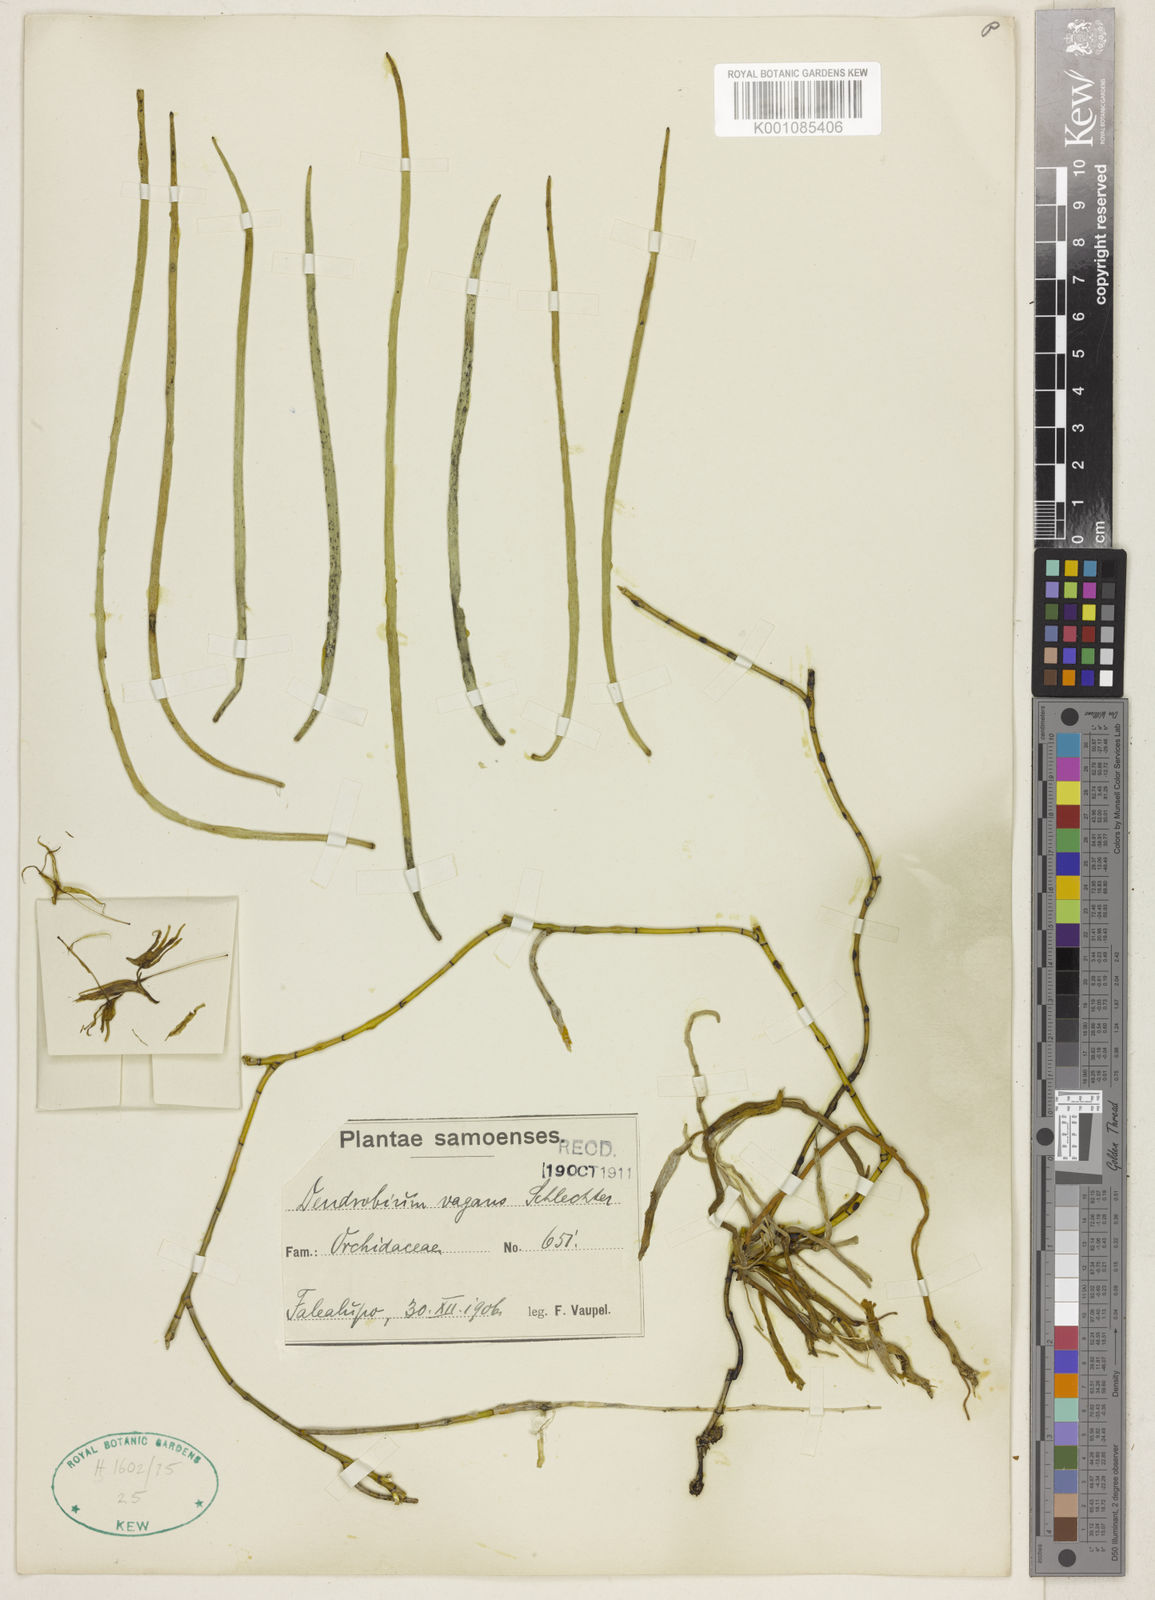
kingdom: Plantae
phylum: Tracheophyta
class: Liliopsida
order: Asparagales
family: Orchidaceae
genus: Dendrobium
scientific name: Dendrobium vagans
